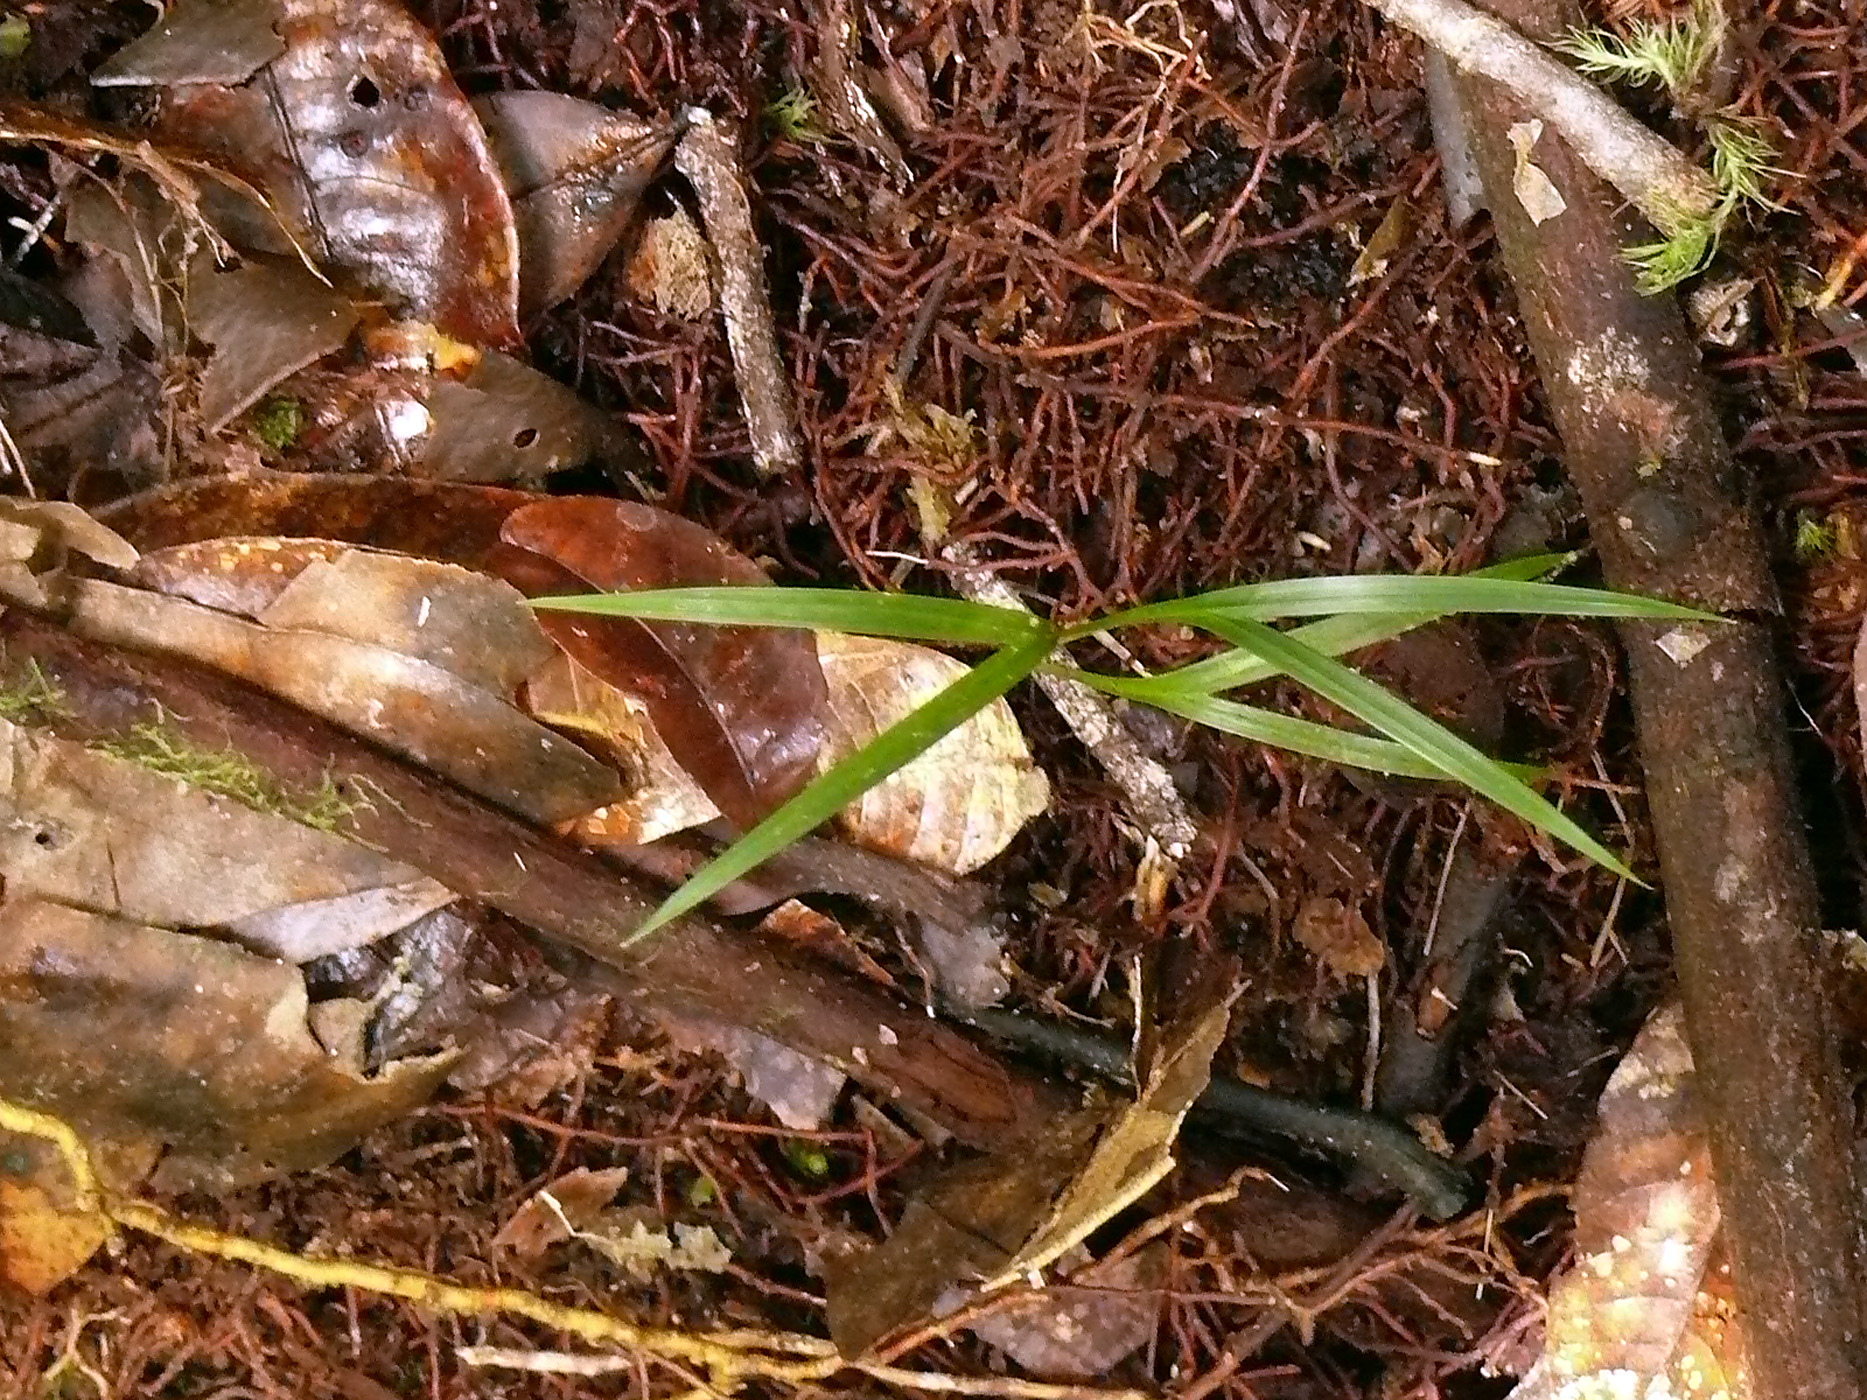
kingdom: Plantae
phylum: Tracheophyta
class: Liliopsida
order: Arecales
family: Arecaceae
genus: Geonoma
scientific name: Geonoma interrupta
